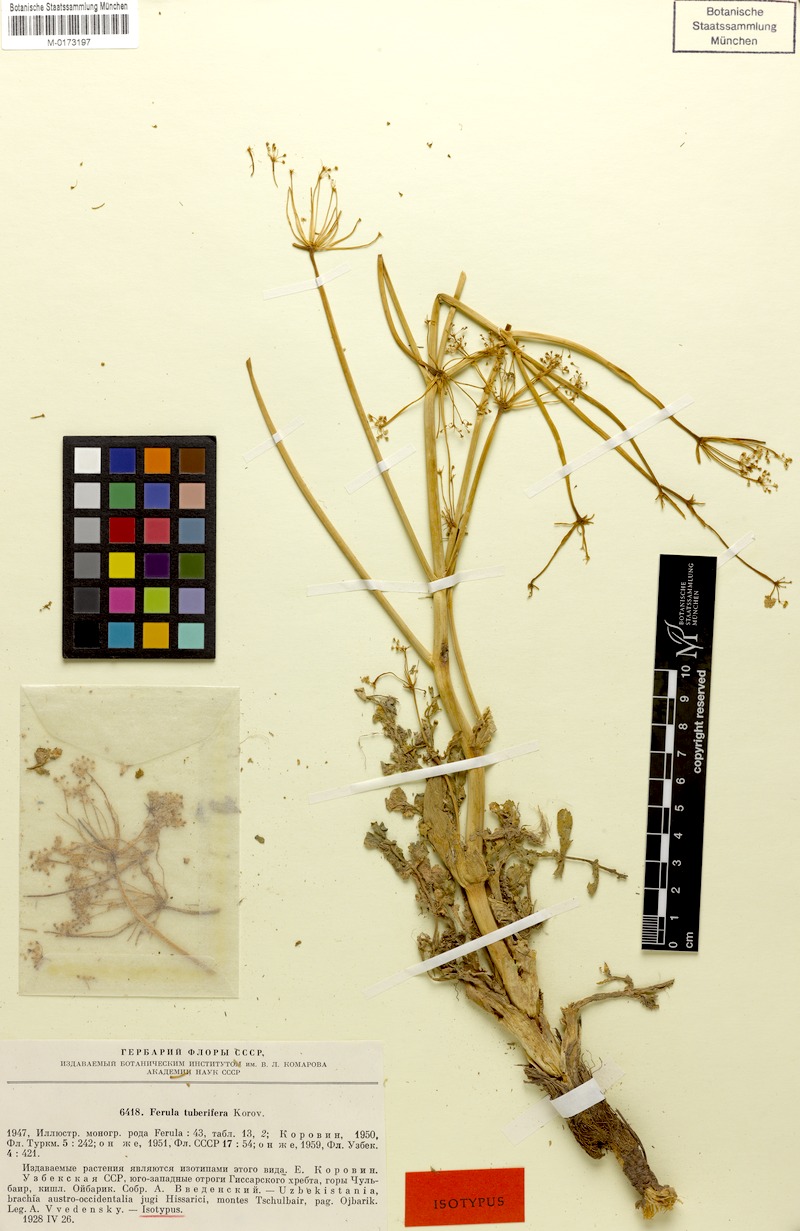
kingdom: Plantae
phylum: Tracheophyta
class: Magnoliopsida
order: Apiales
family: Apiaceae
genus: Ferula
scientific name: Ferula tuberifera
